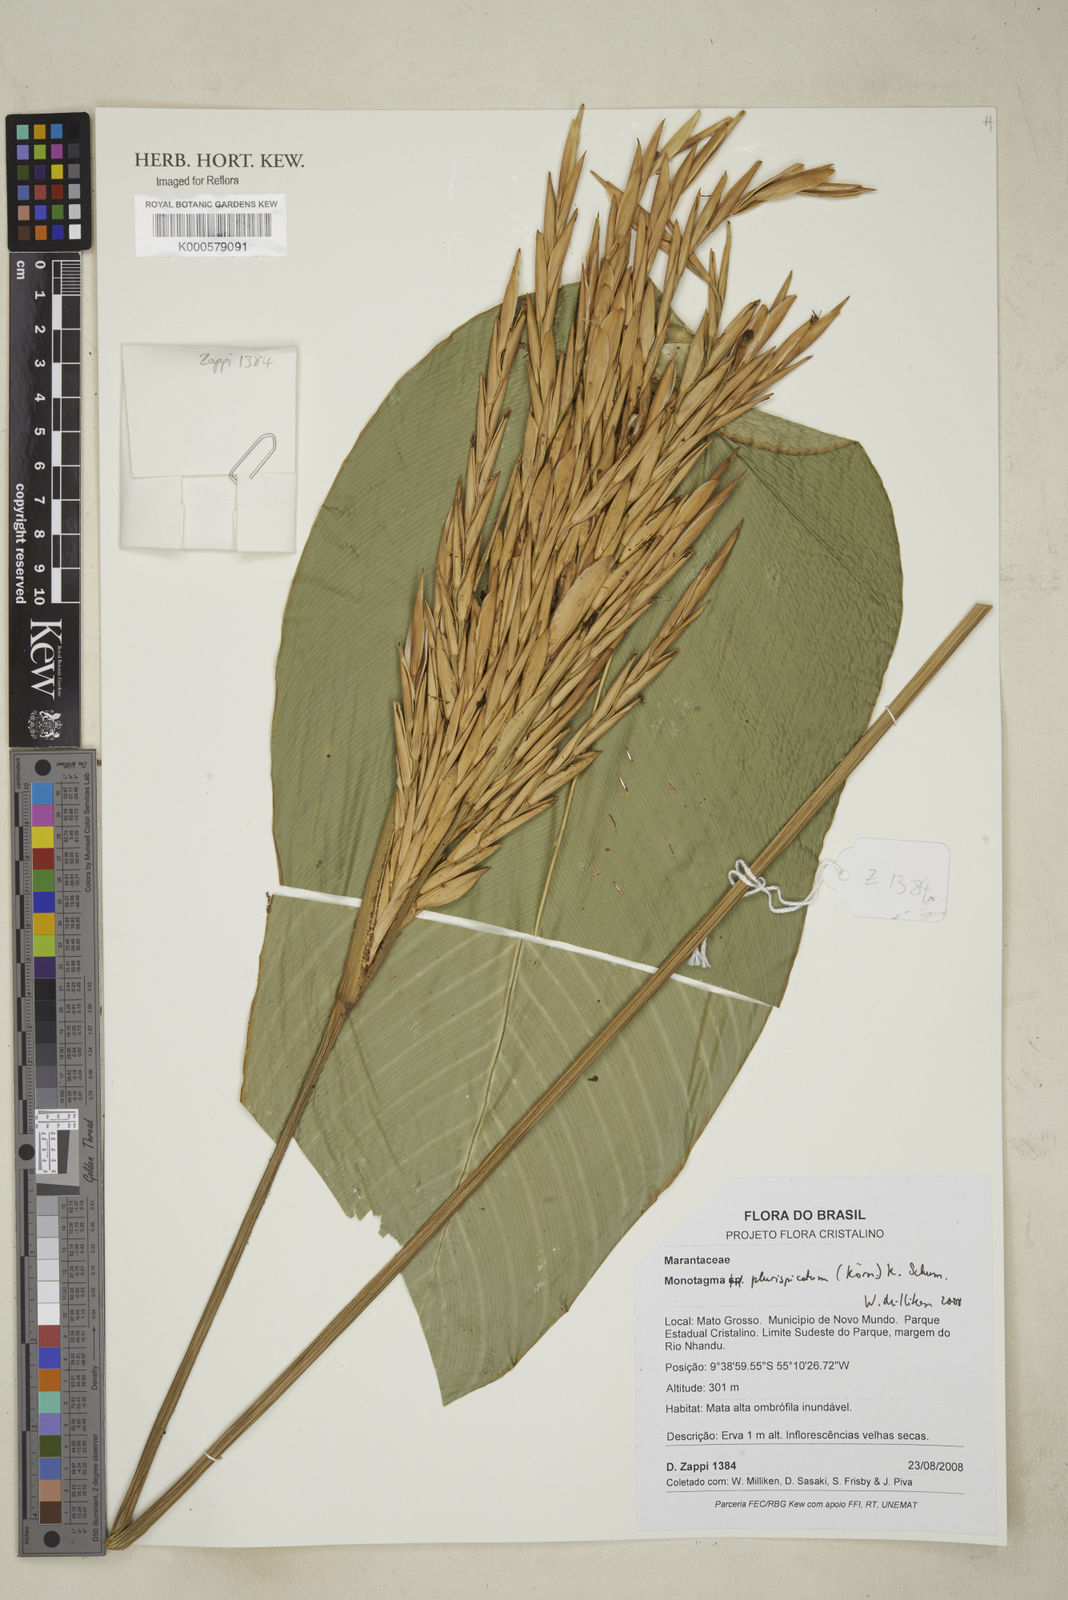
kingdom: Plantae
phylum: Tracheophyta
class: Liliopsida
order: Zingiberales
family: Marantaceae
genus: Monotagma
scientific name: Monotagma
